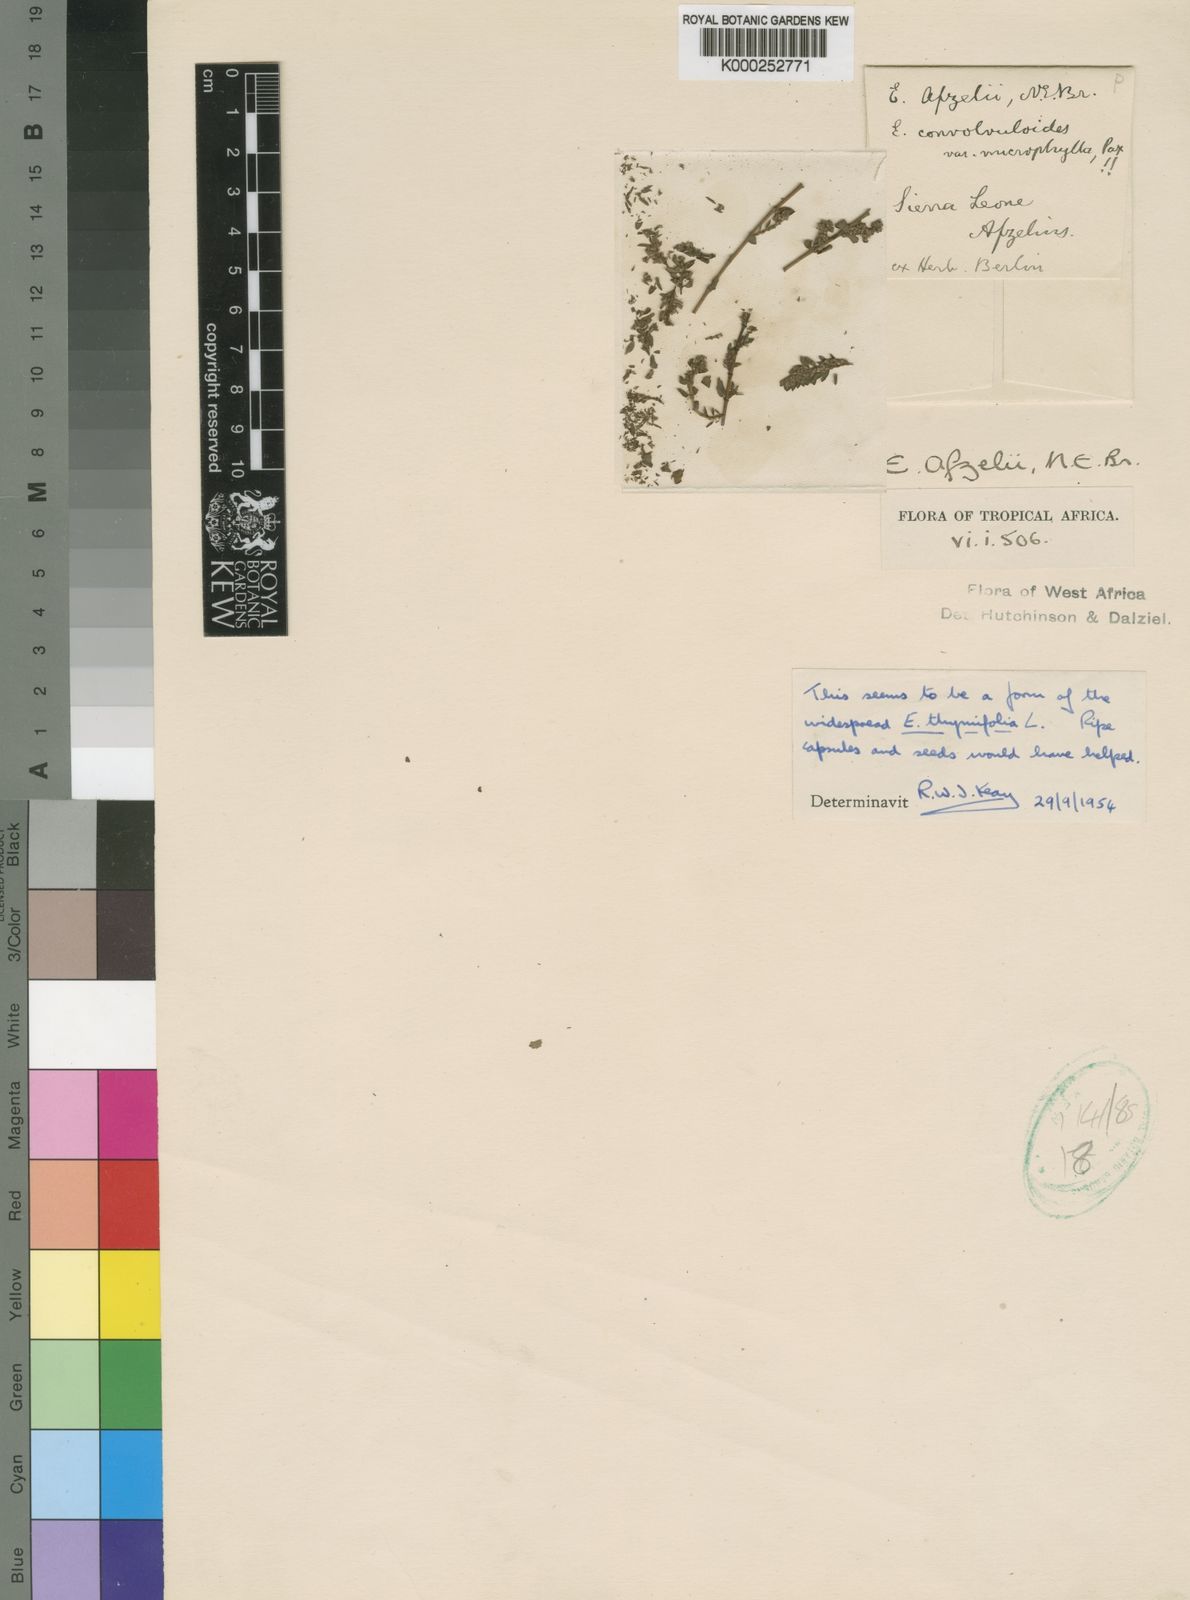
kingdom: Plantae
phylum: Tracheophyta
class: Magnoliopsida
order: Malpighiales
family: Euphorbiaceae
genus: Euphorbia
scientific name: Euphorbia thymifolia
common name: Gulf sandmat
